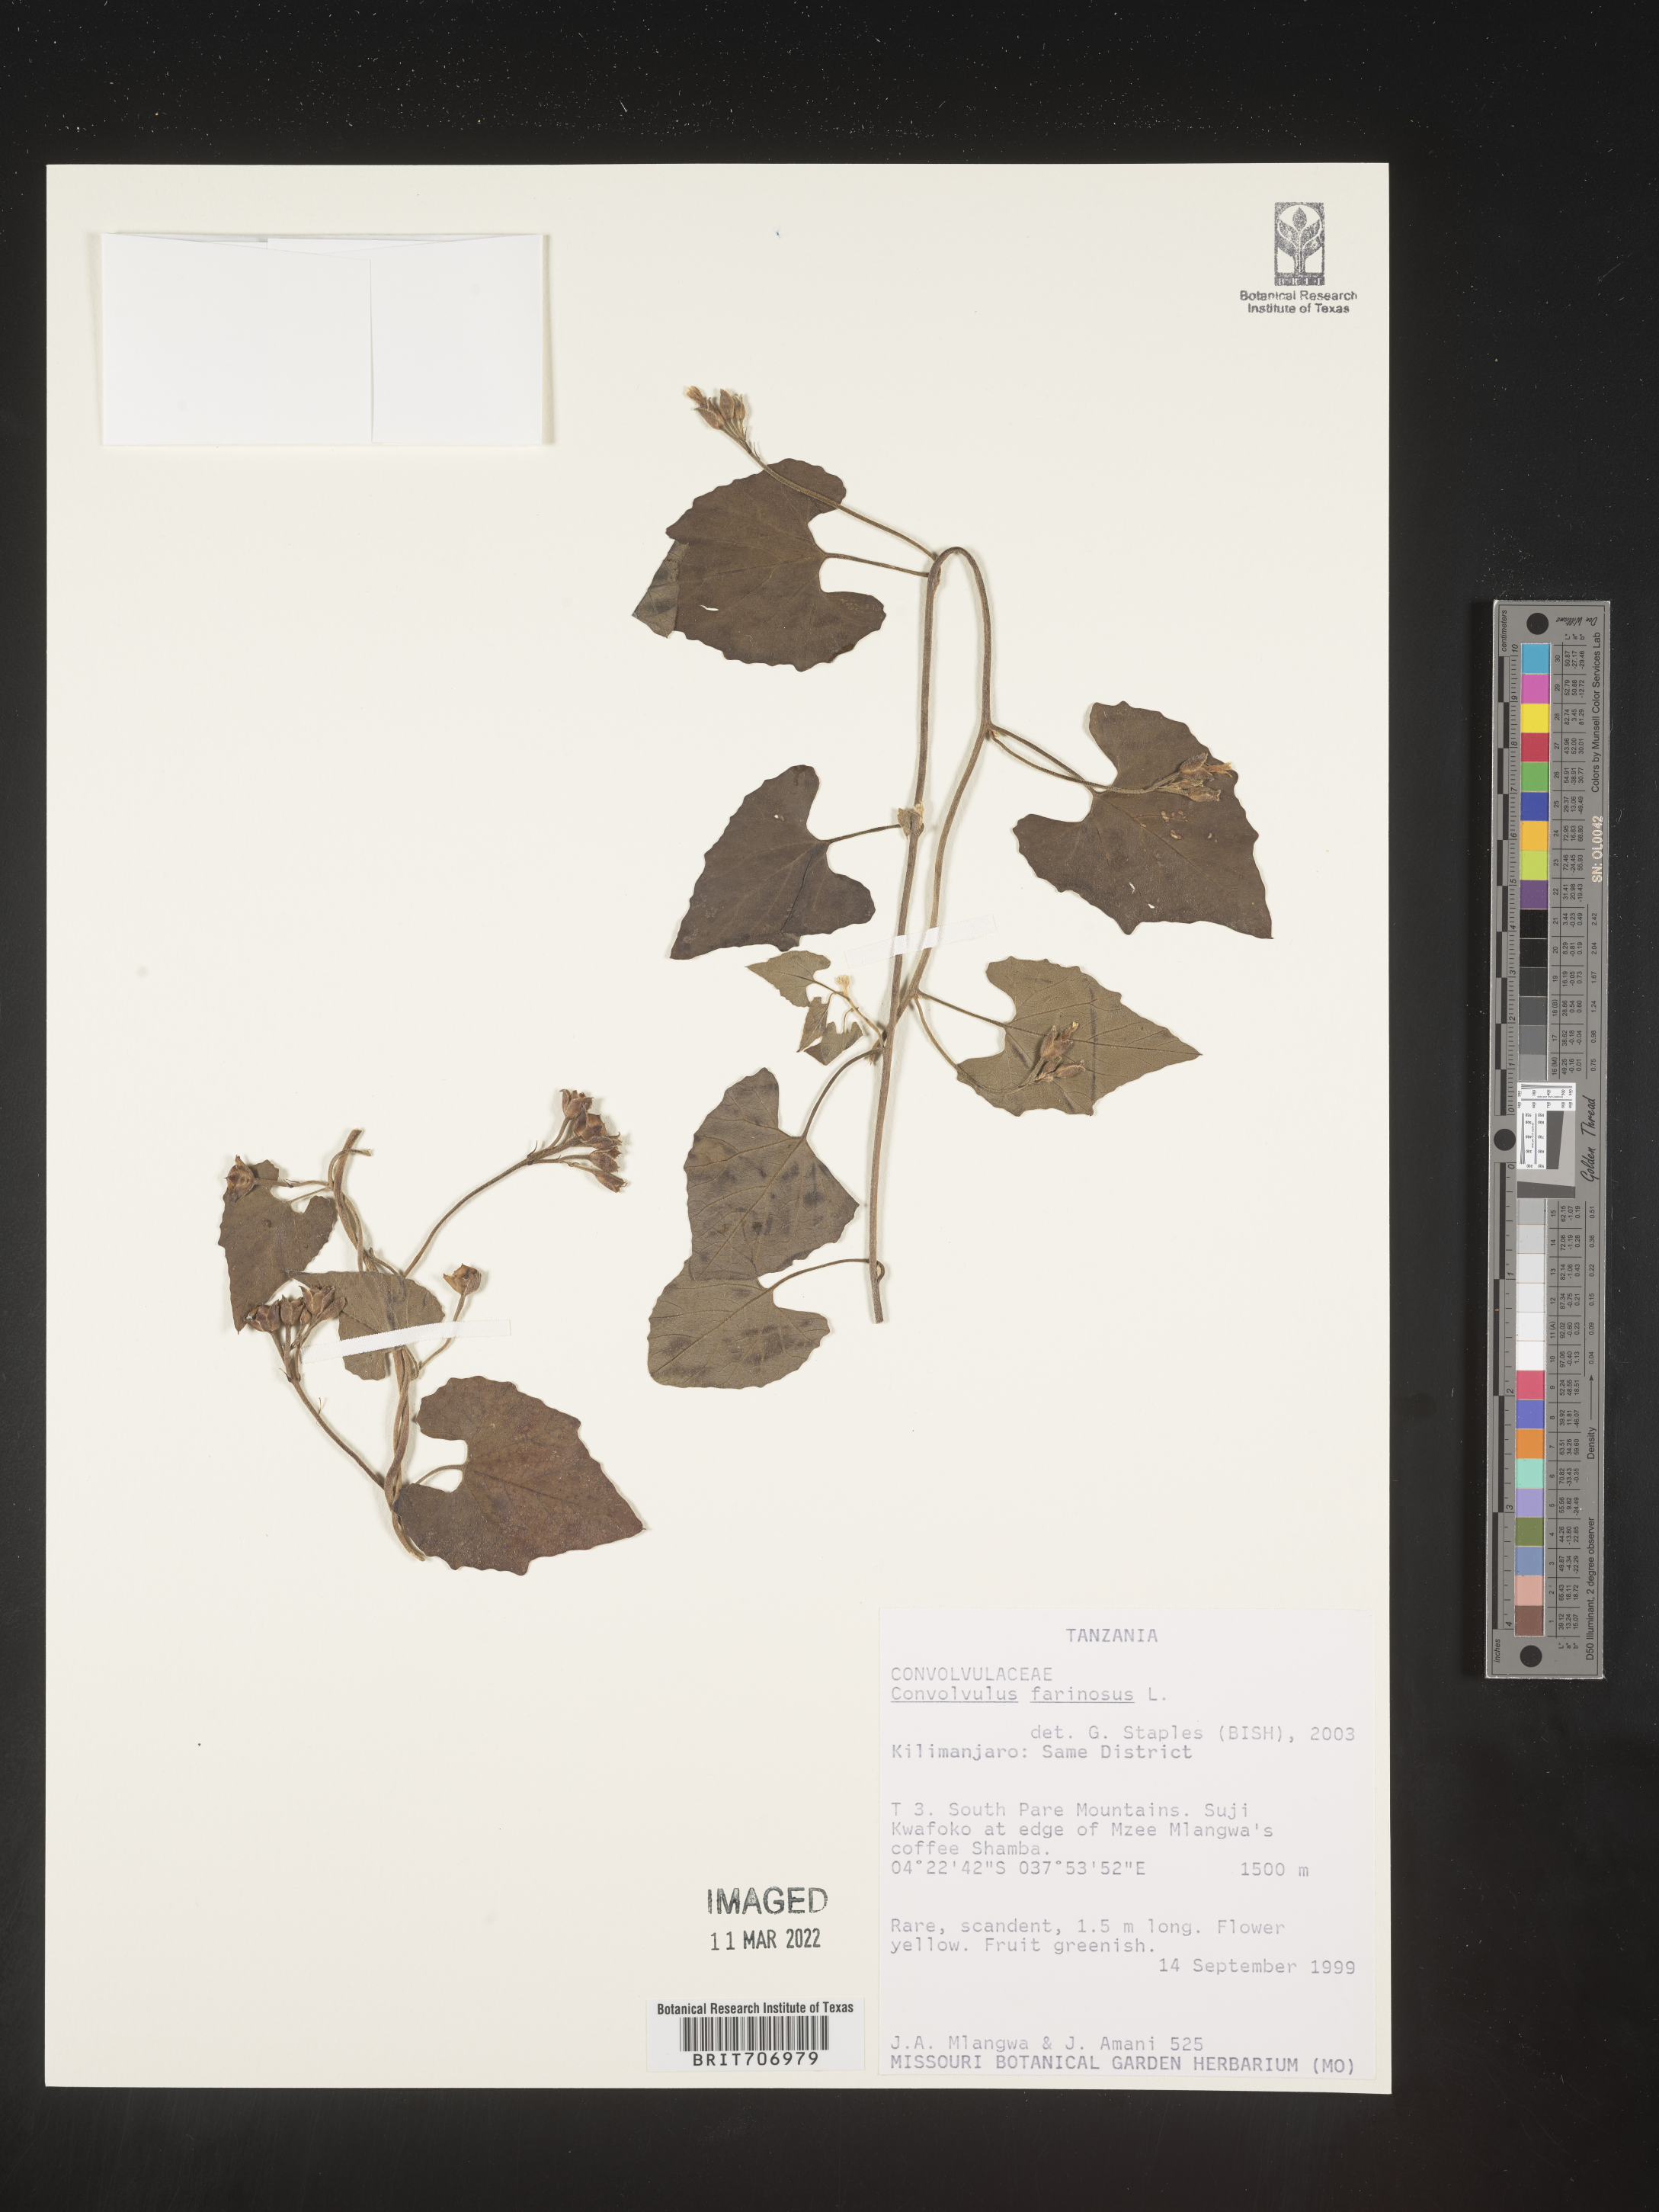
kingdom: Plantae
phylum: Tracheophyta
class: Magnoliopsida
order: Solanales
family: Convolvulaceae
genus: Convolvulus
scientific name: Convolvulus
